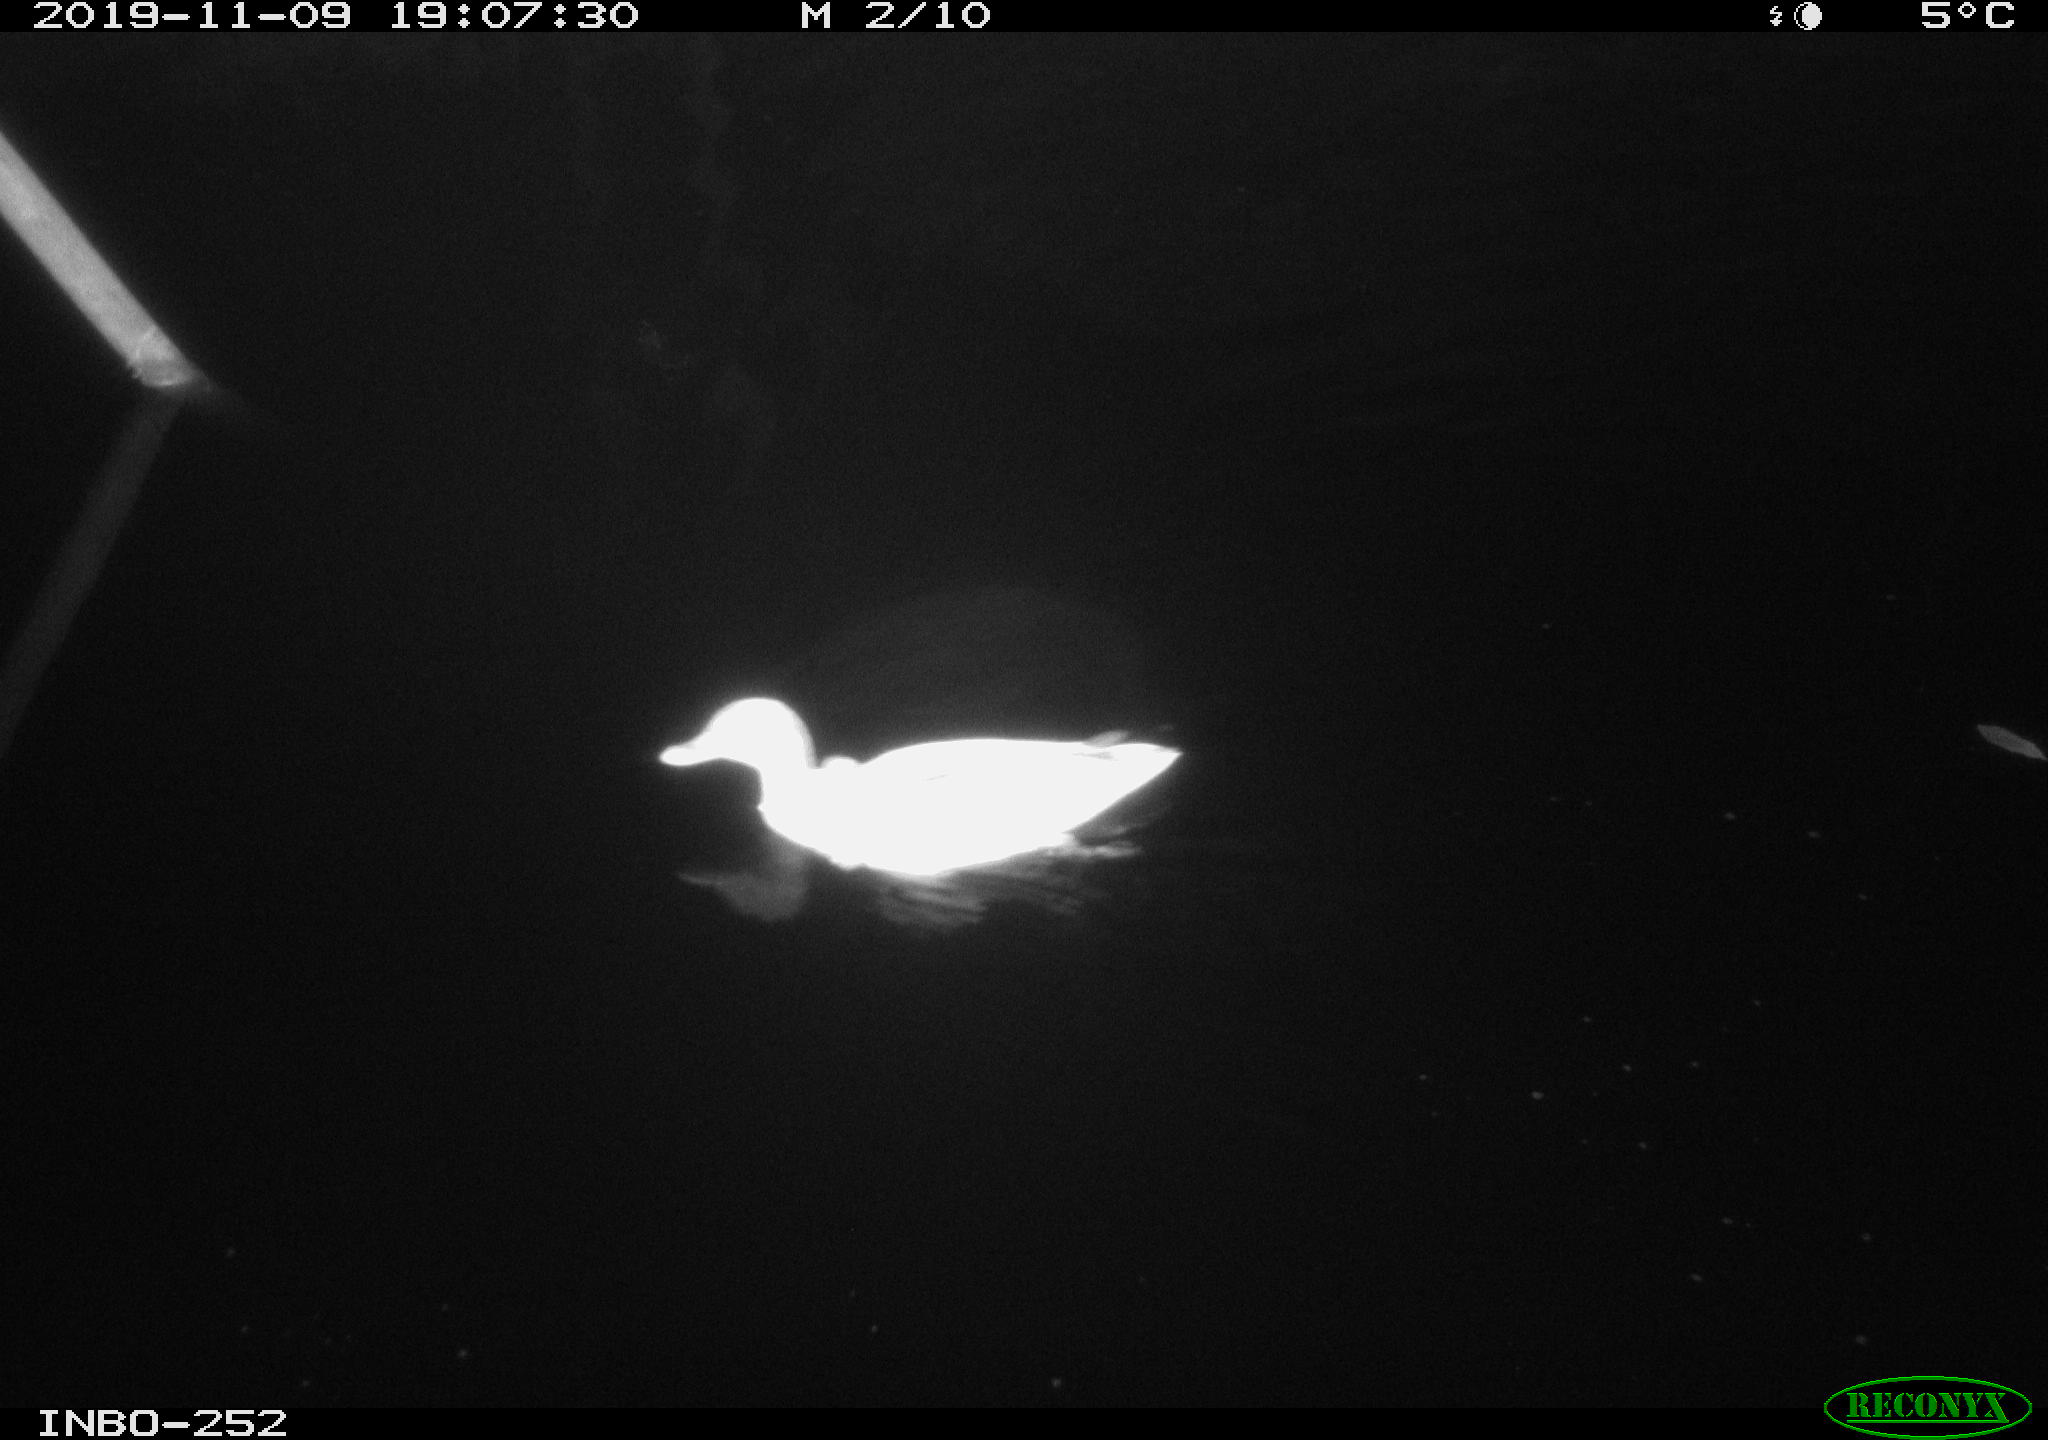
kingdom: Animalia
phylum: Chordata
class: Aves
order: Anseriformes
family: Anatidae
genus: Anas
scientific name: Anas platyrhynchos
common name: Mallard
